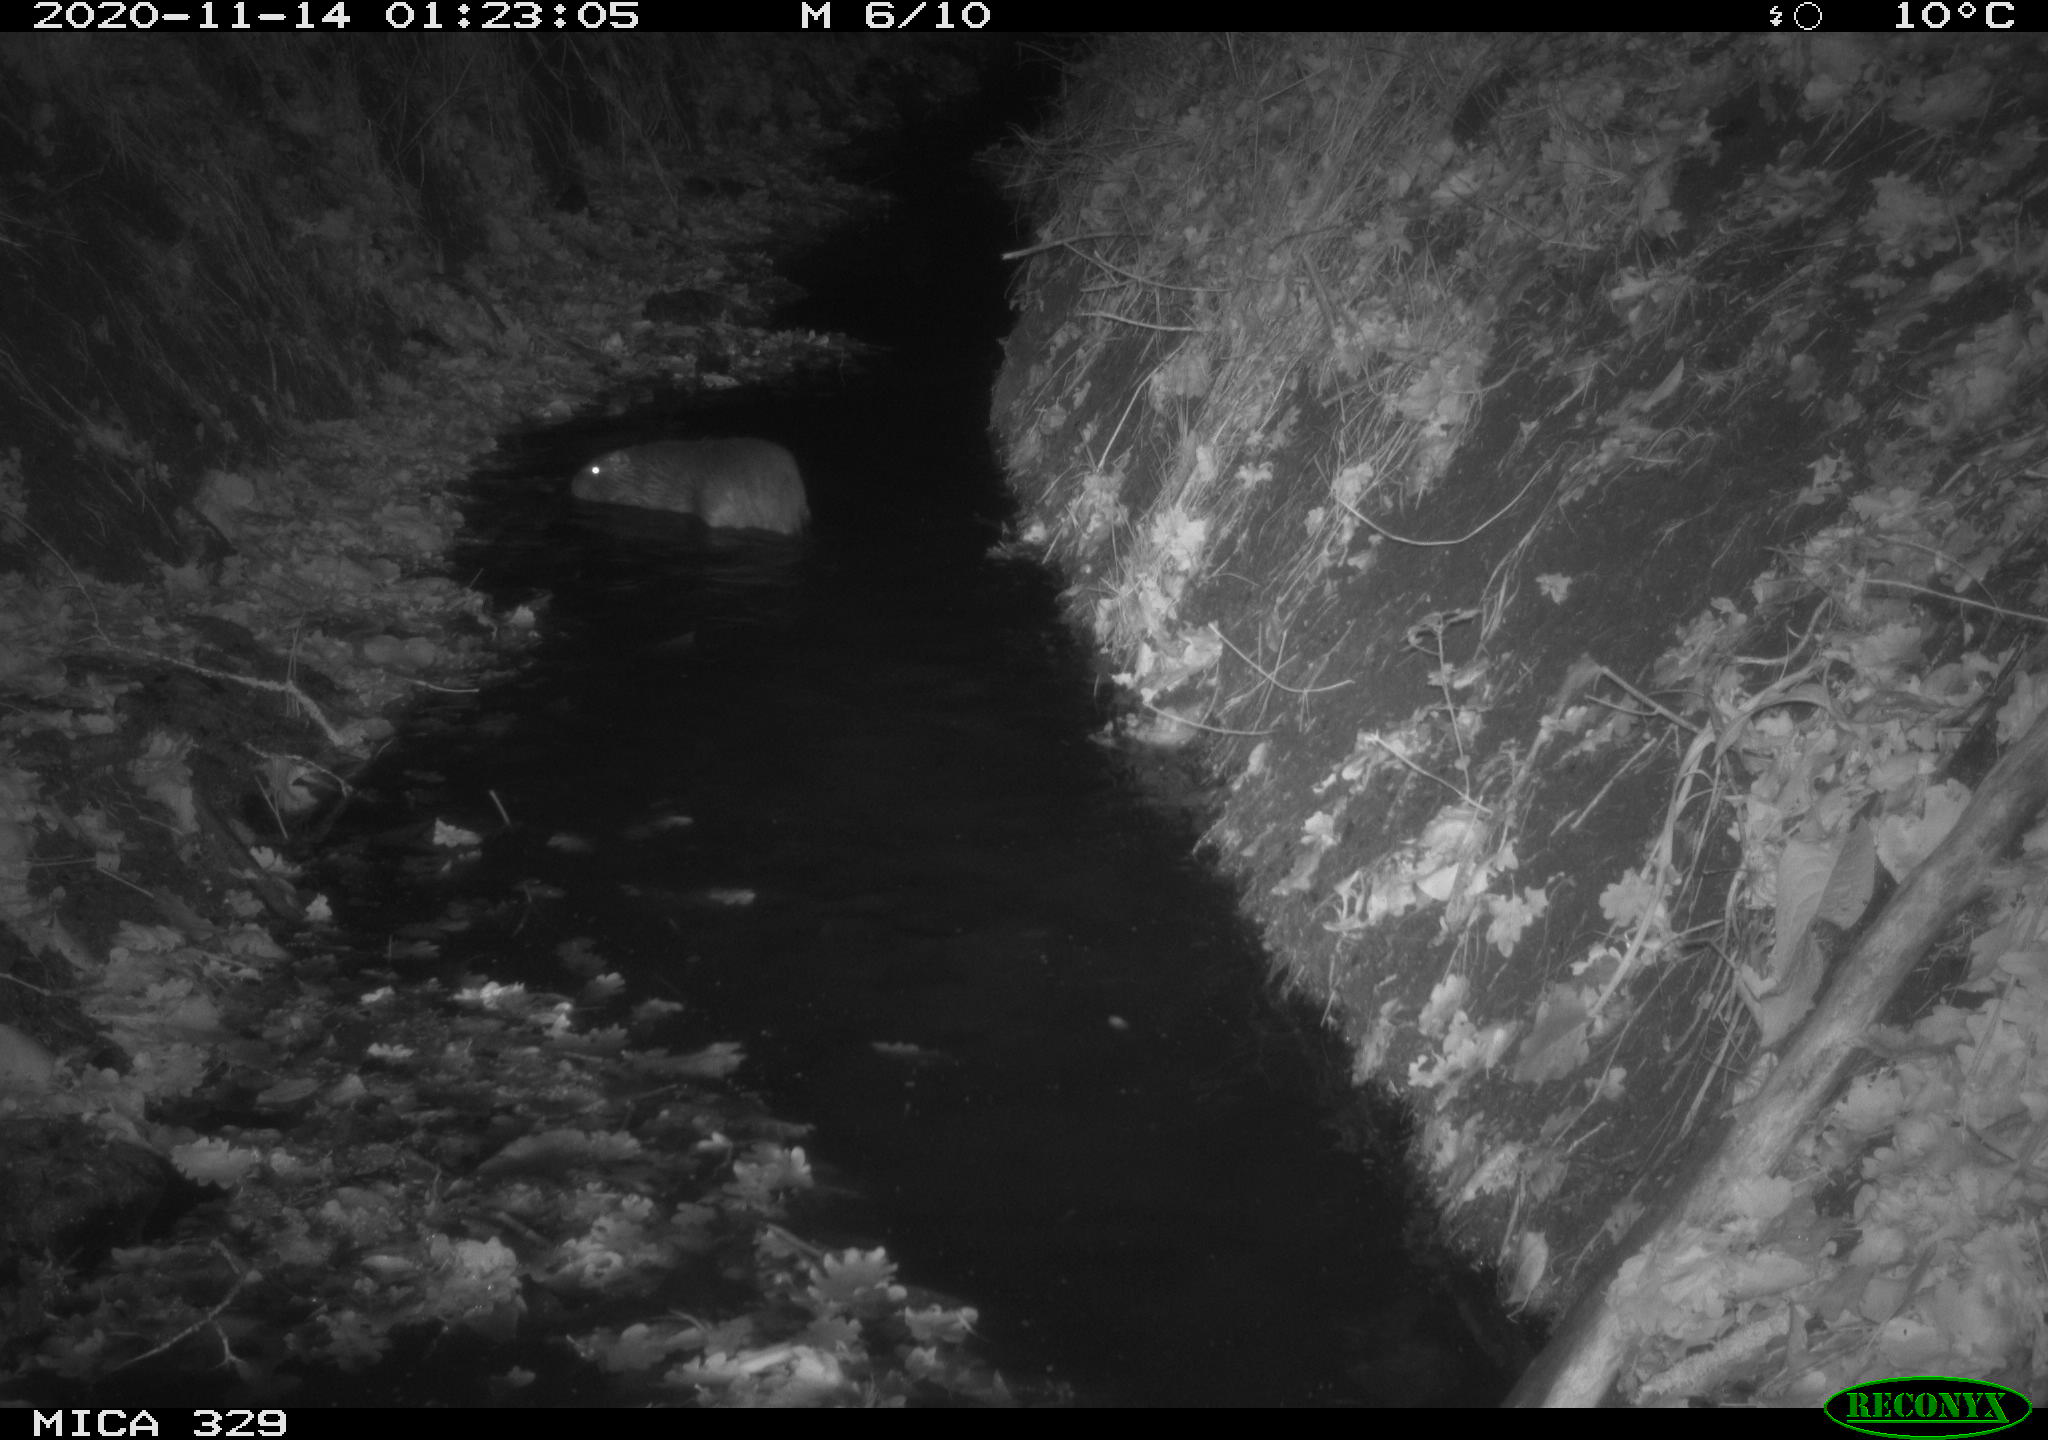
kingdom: Animalia
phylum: Chordata
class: Mammalia
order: Rodentia
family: Myocastoridae
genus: Myocastor
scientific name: Myocastor coypus
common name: Coypu
